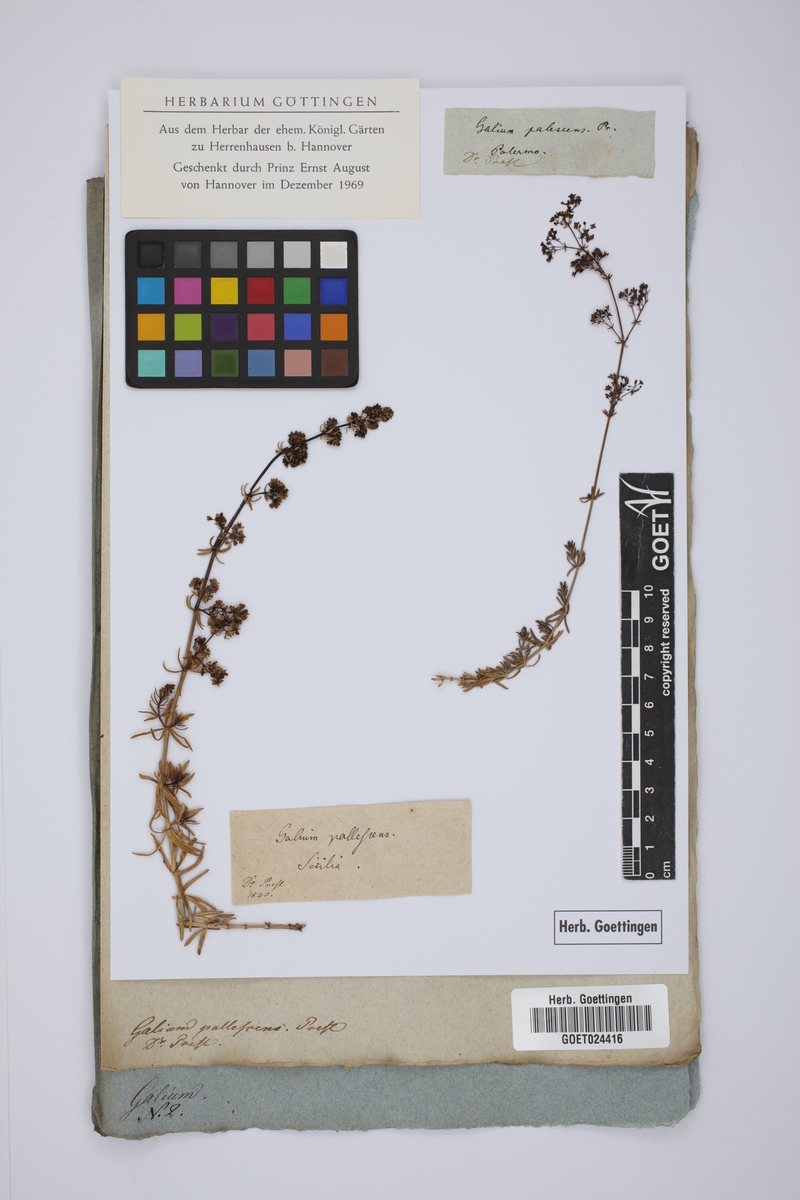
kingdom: Plantae
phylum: Tracheophyta
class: Magnoliopsida
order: Gentianales
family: Rubiaceae
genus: Galium
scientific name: Galium mollugo
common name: Hedge bedstraw
